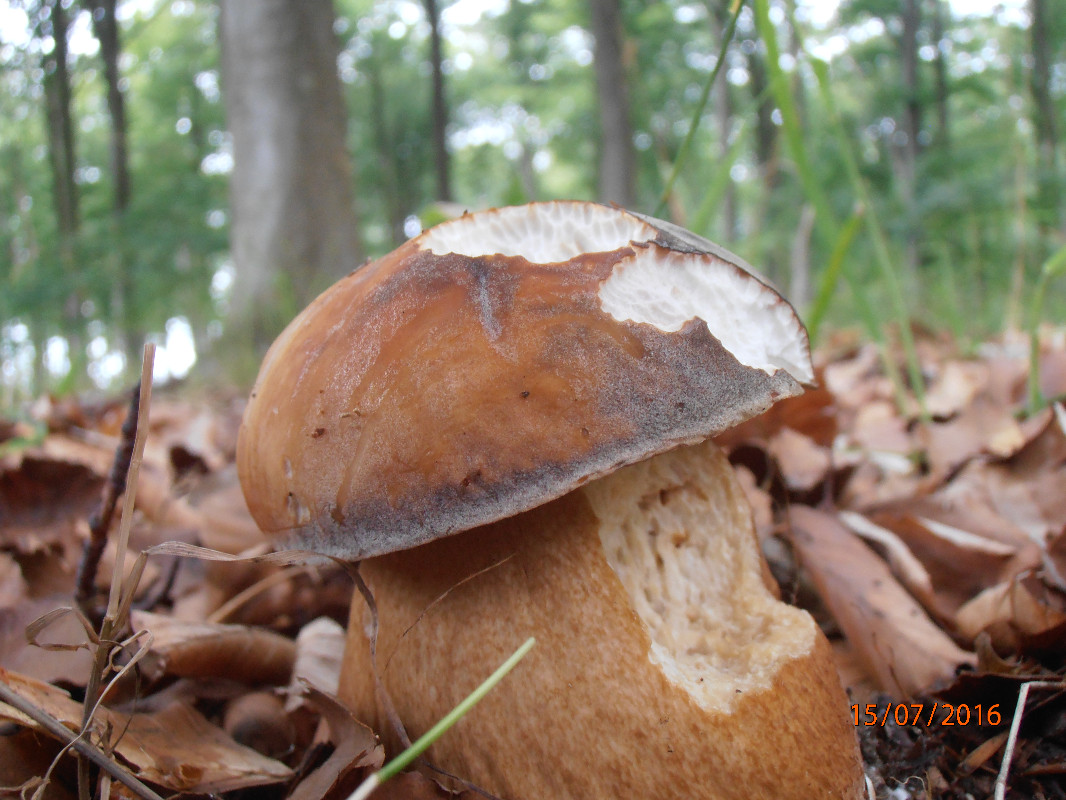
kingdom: Fungi
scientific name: Fungi
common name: bronze-rørhat
